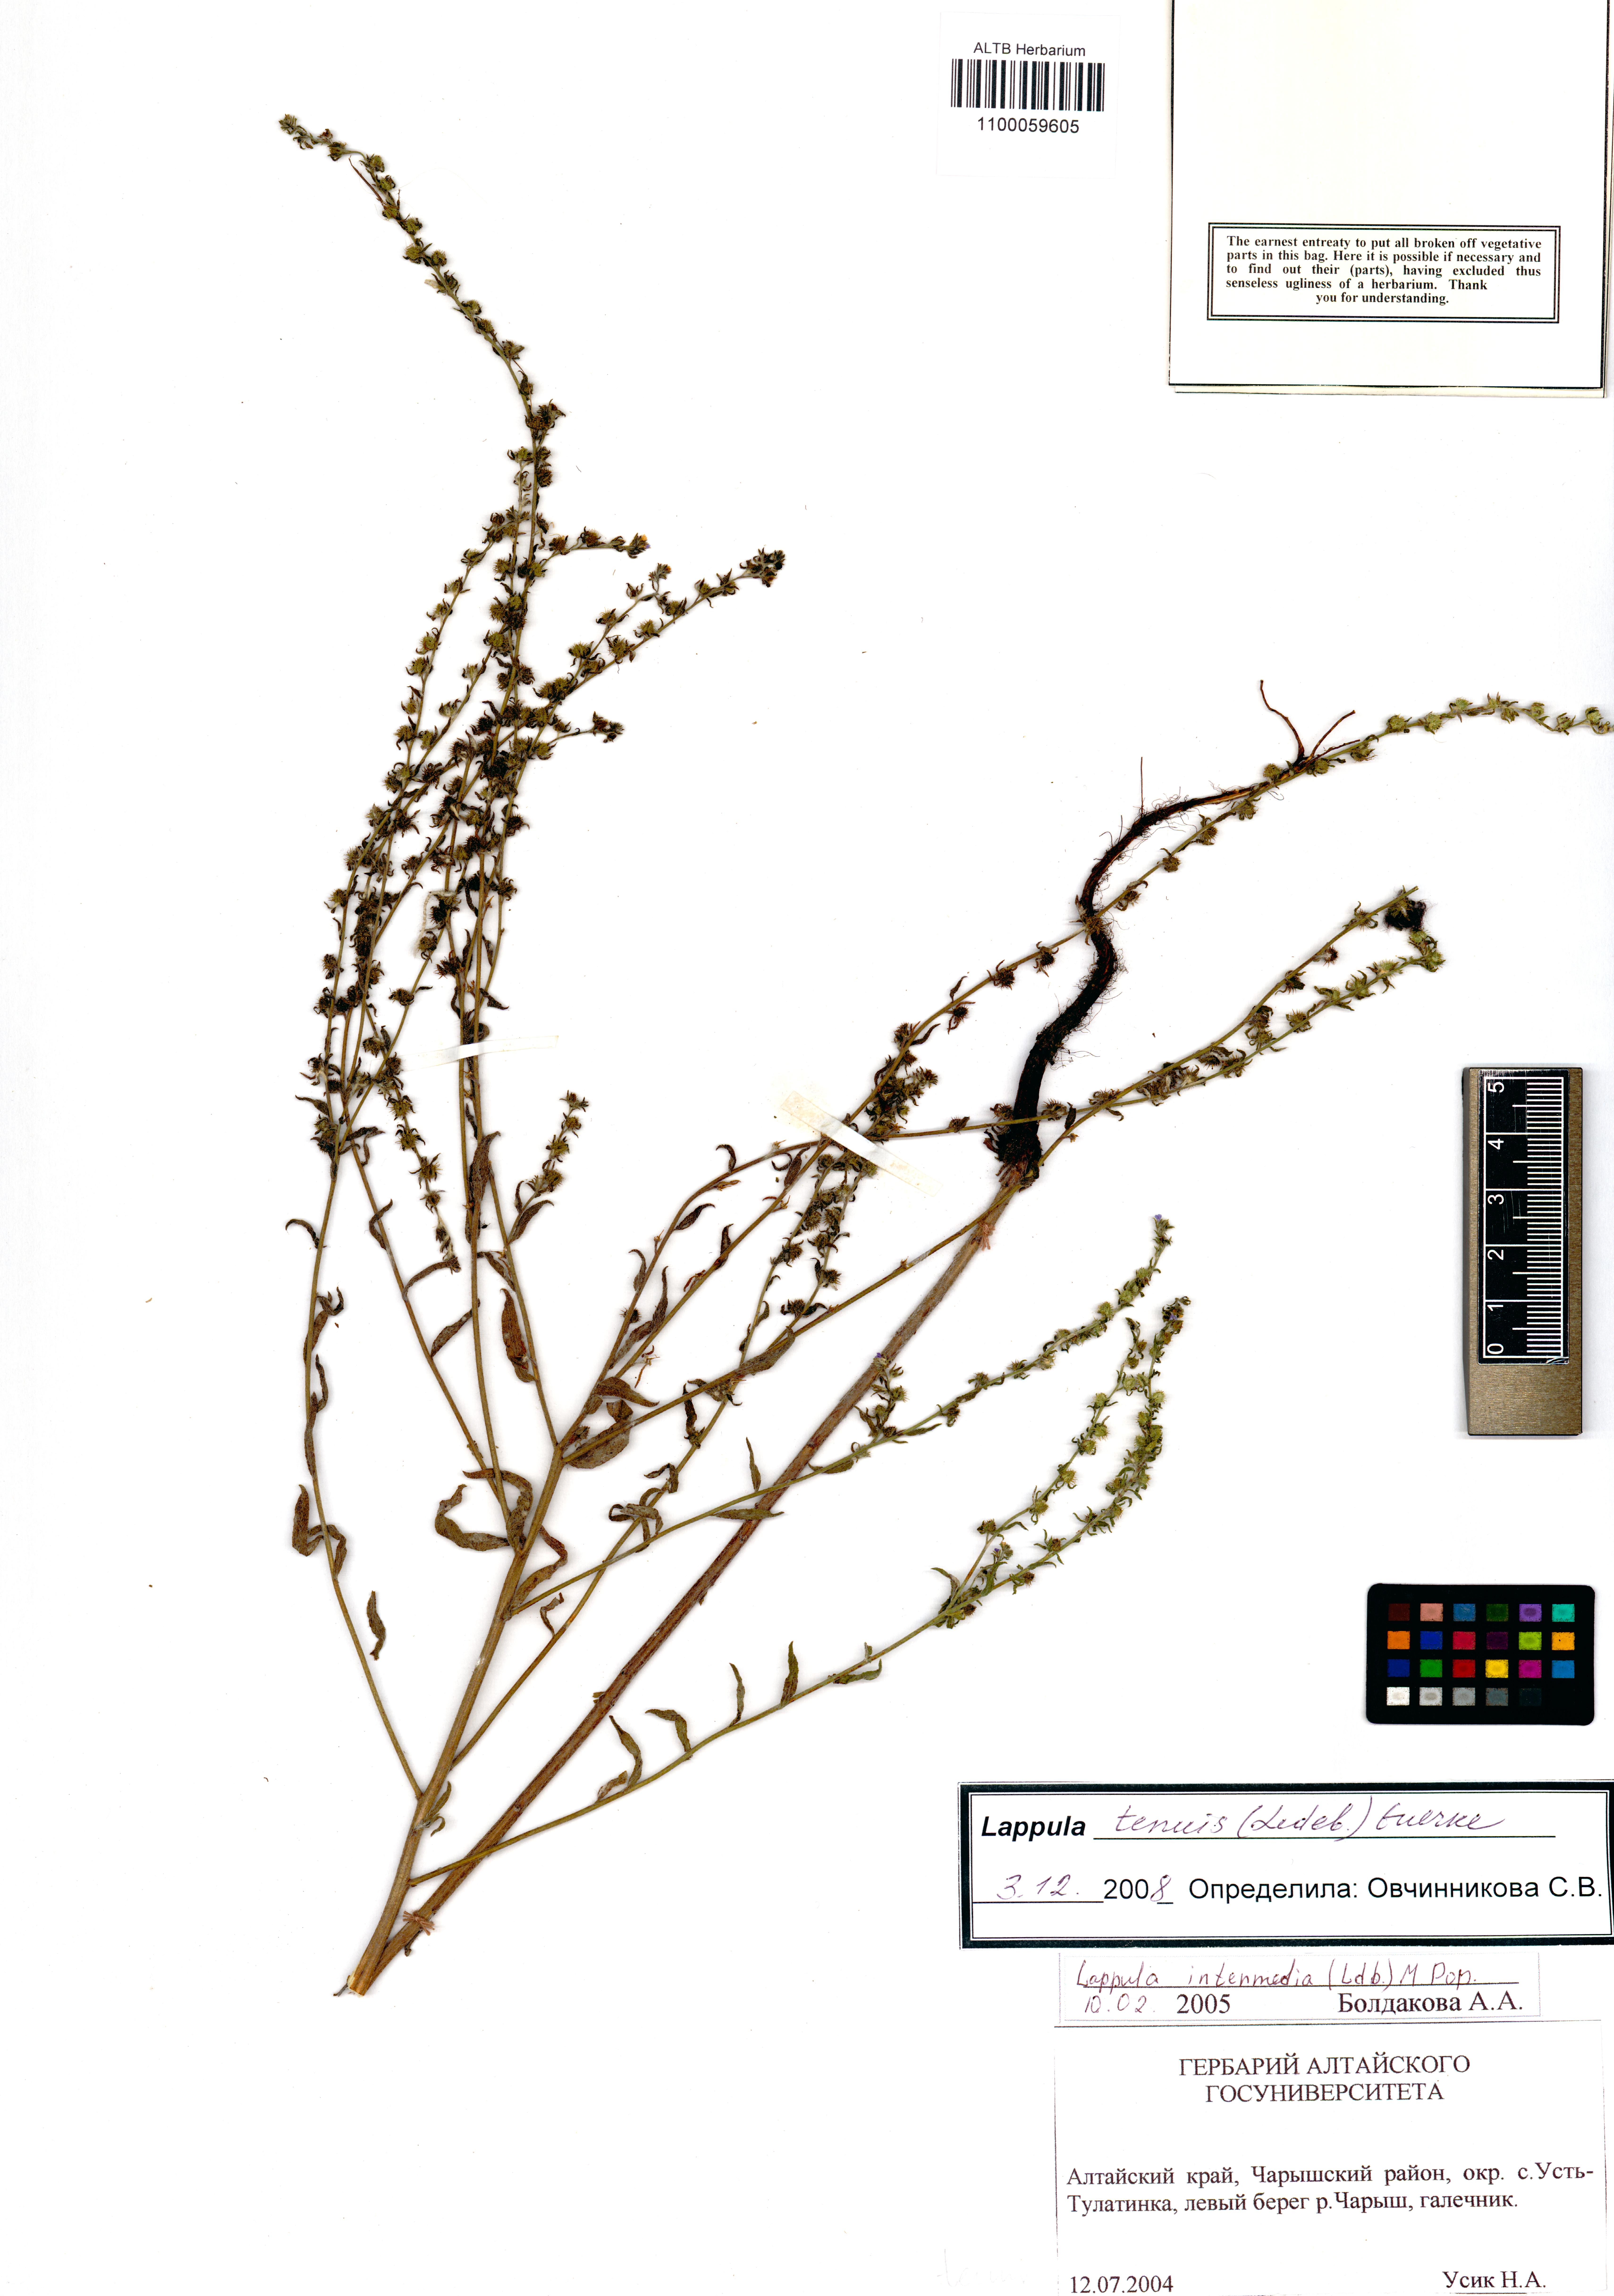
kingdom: Plantae
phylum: Tracheophyta
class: Magnoliopsida
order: Boraginales
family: Boraginaceae
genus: Lappula
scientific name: Lappula tenuis
